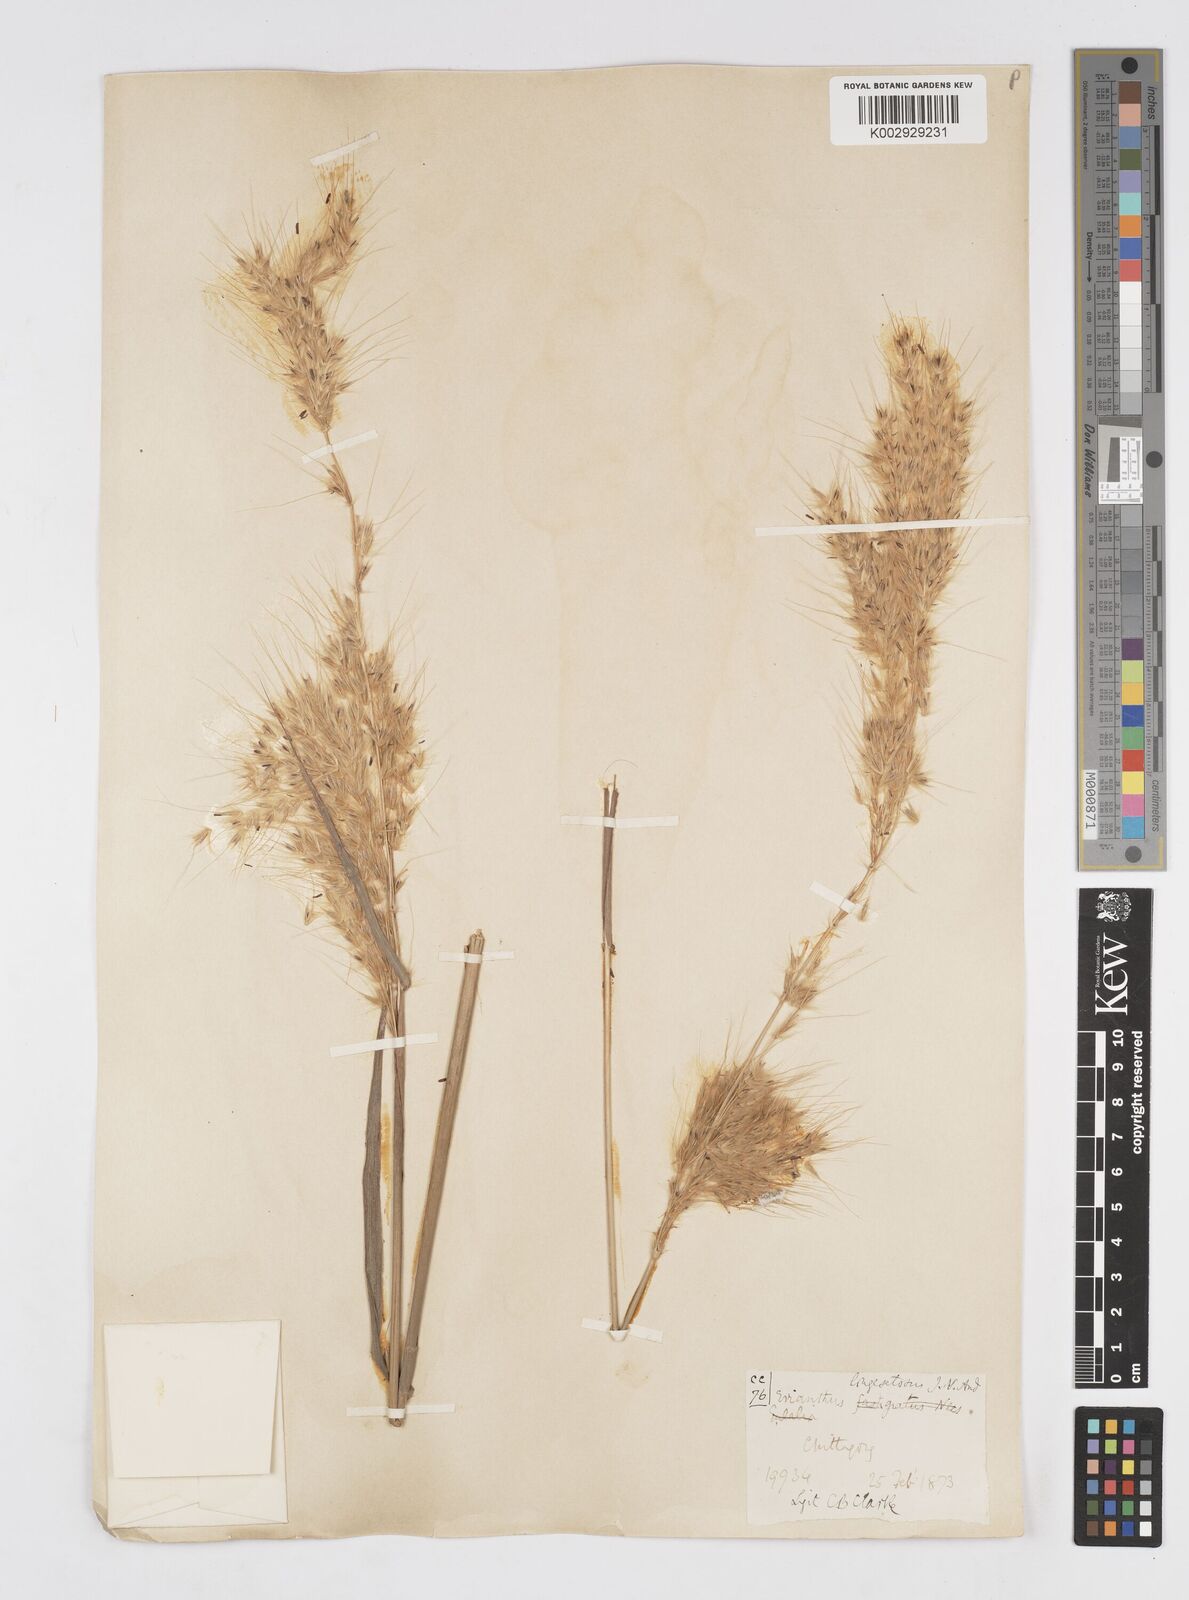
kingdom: Plantae
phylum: Tracheophyta
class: Liliopsida
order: Poales
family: Poaceae
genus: Melinis
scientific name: Melinis longiseta
